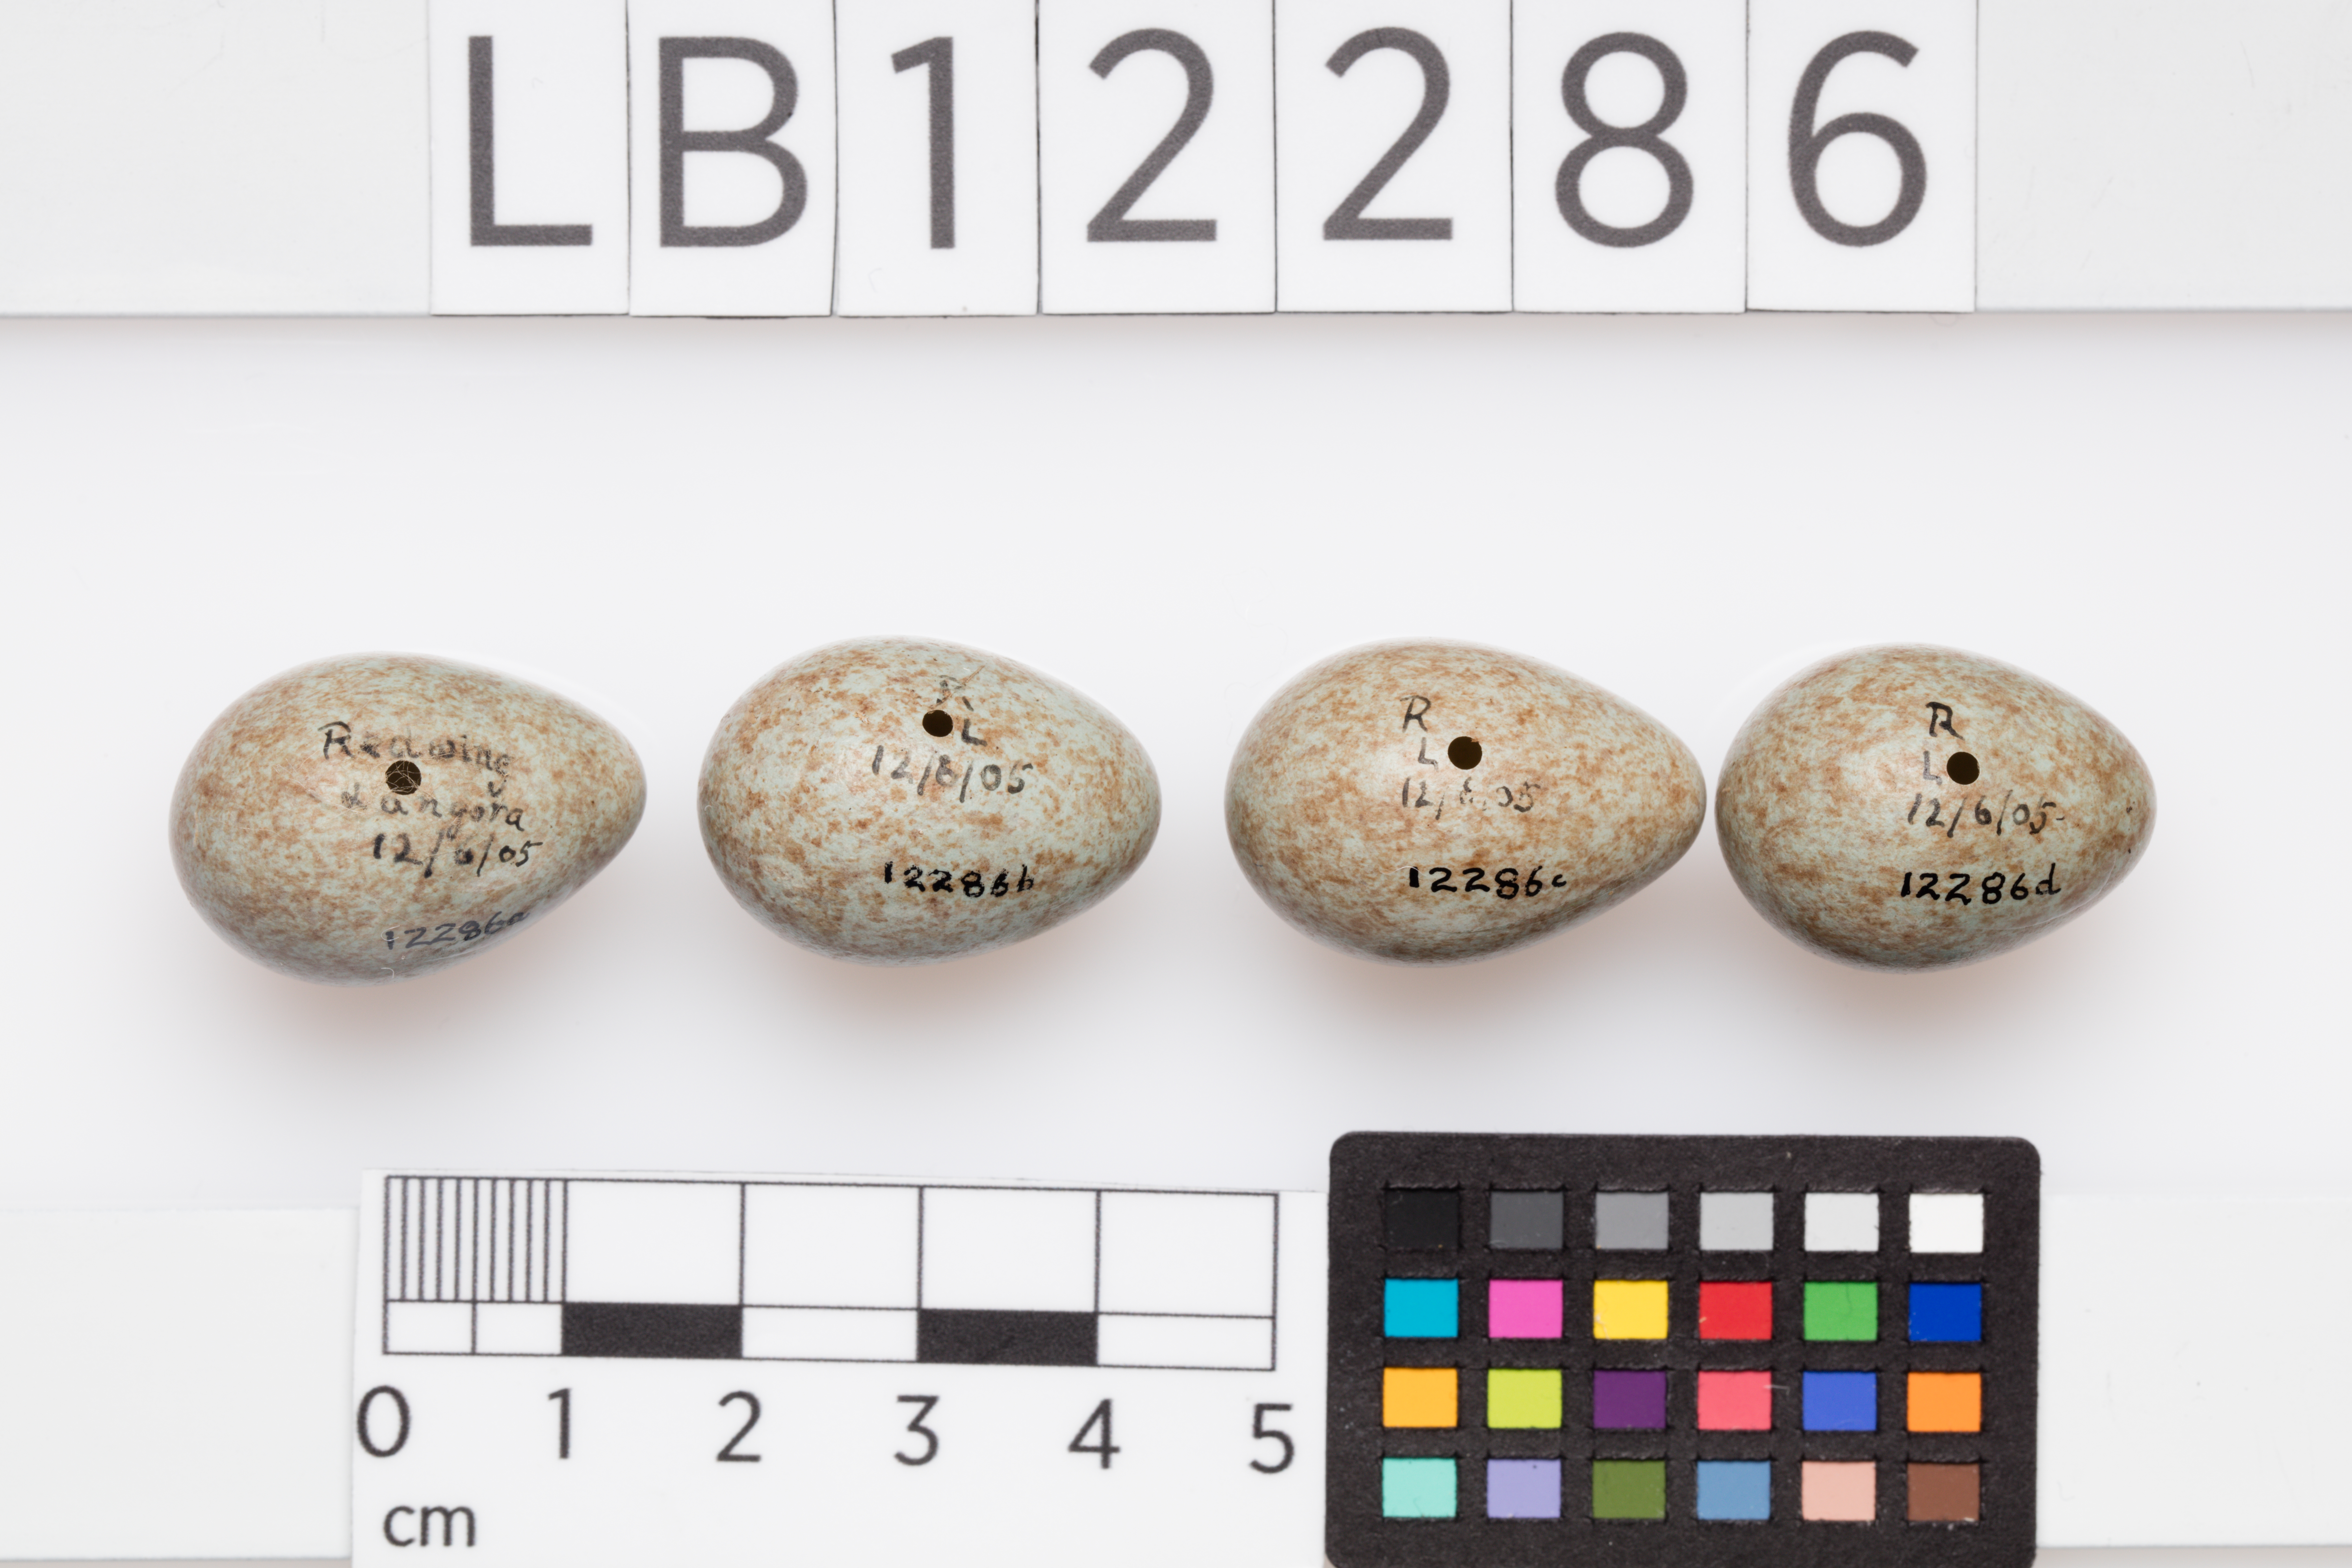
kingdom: Animalia
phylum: Chordata
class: Aves
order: Passeriformes
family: Turdidae
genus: Turdus
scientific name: Turdus iliacus
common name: Redwing
